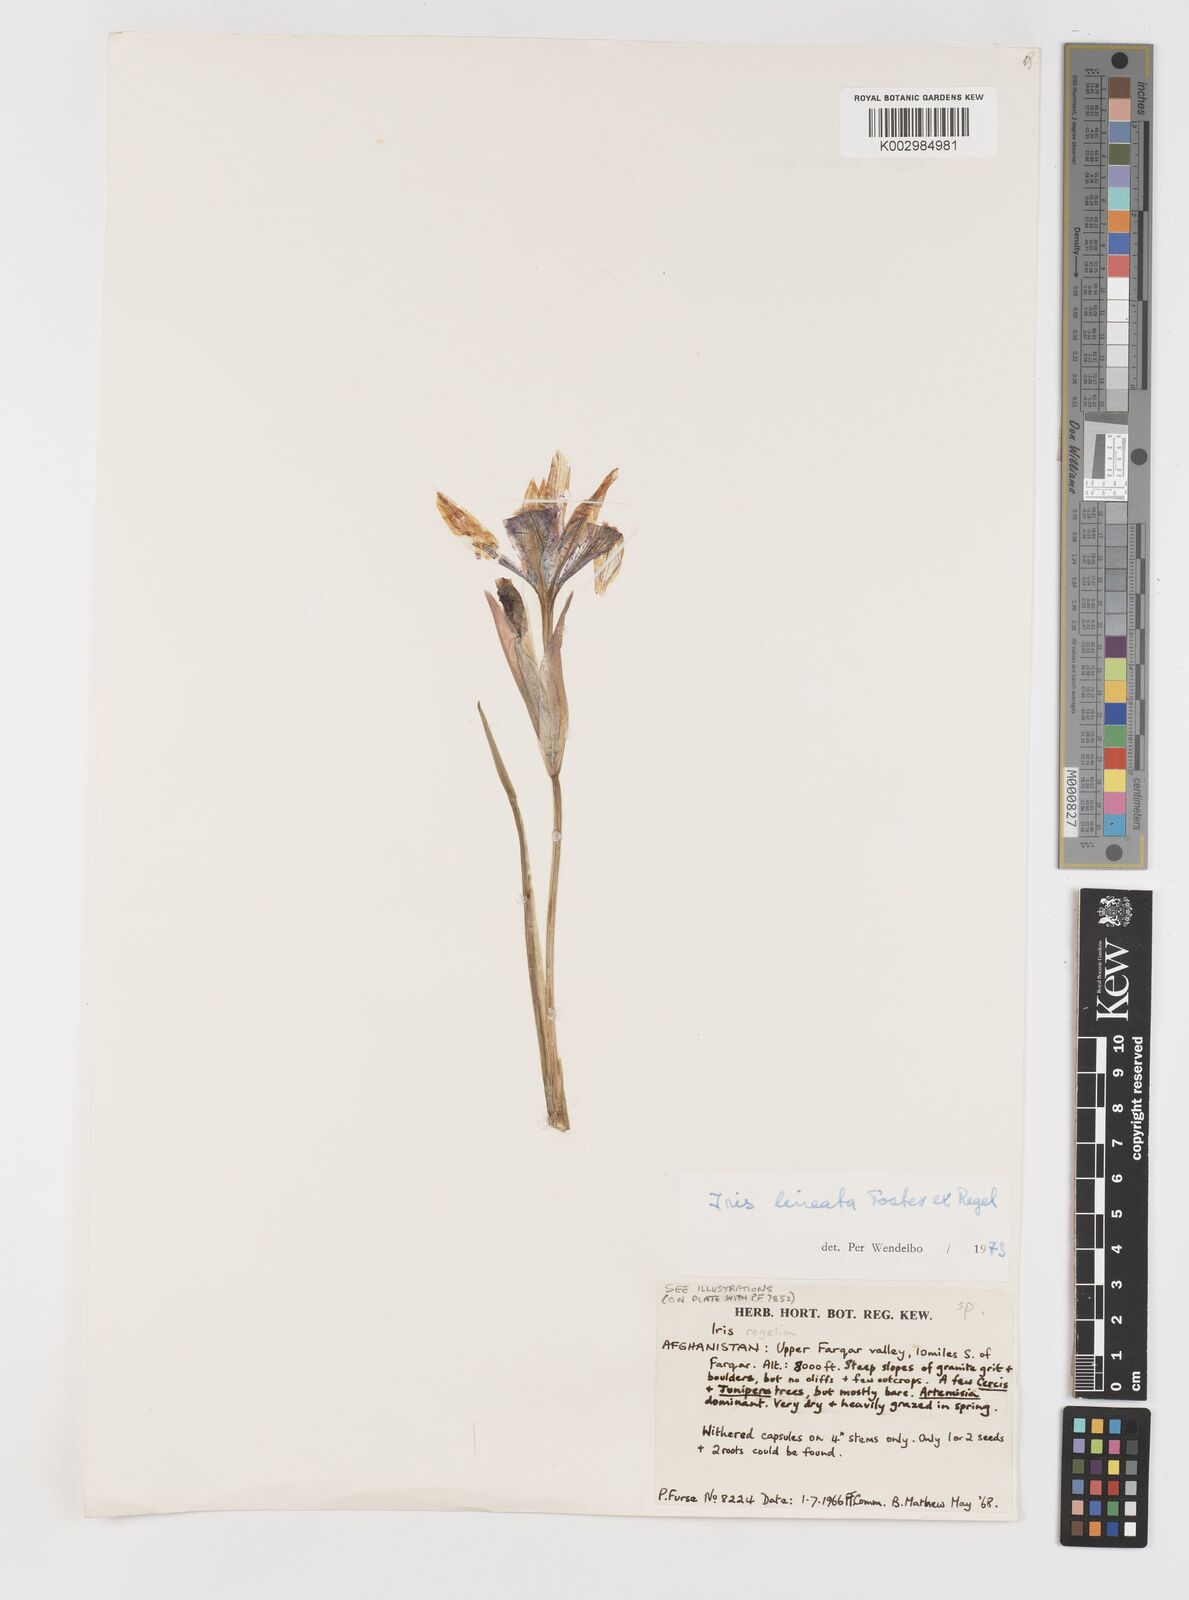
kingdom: Plantae
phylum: Tracheophyta
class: Liliopsida
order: Asparagales
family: Iridaceae
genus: Iris
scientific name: Iris lineata
